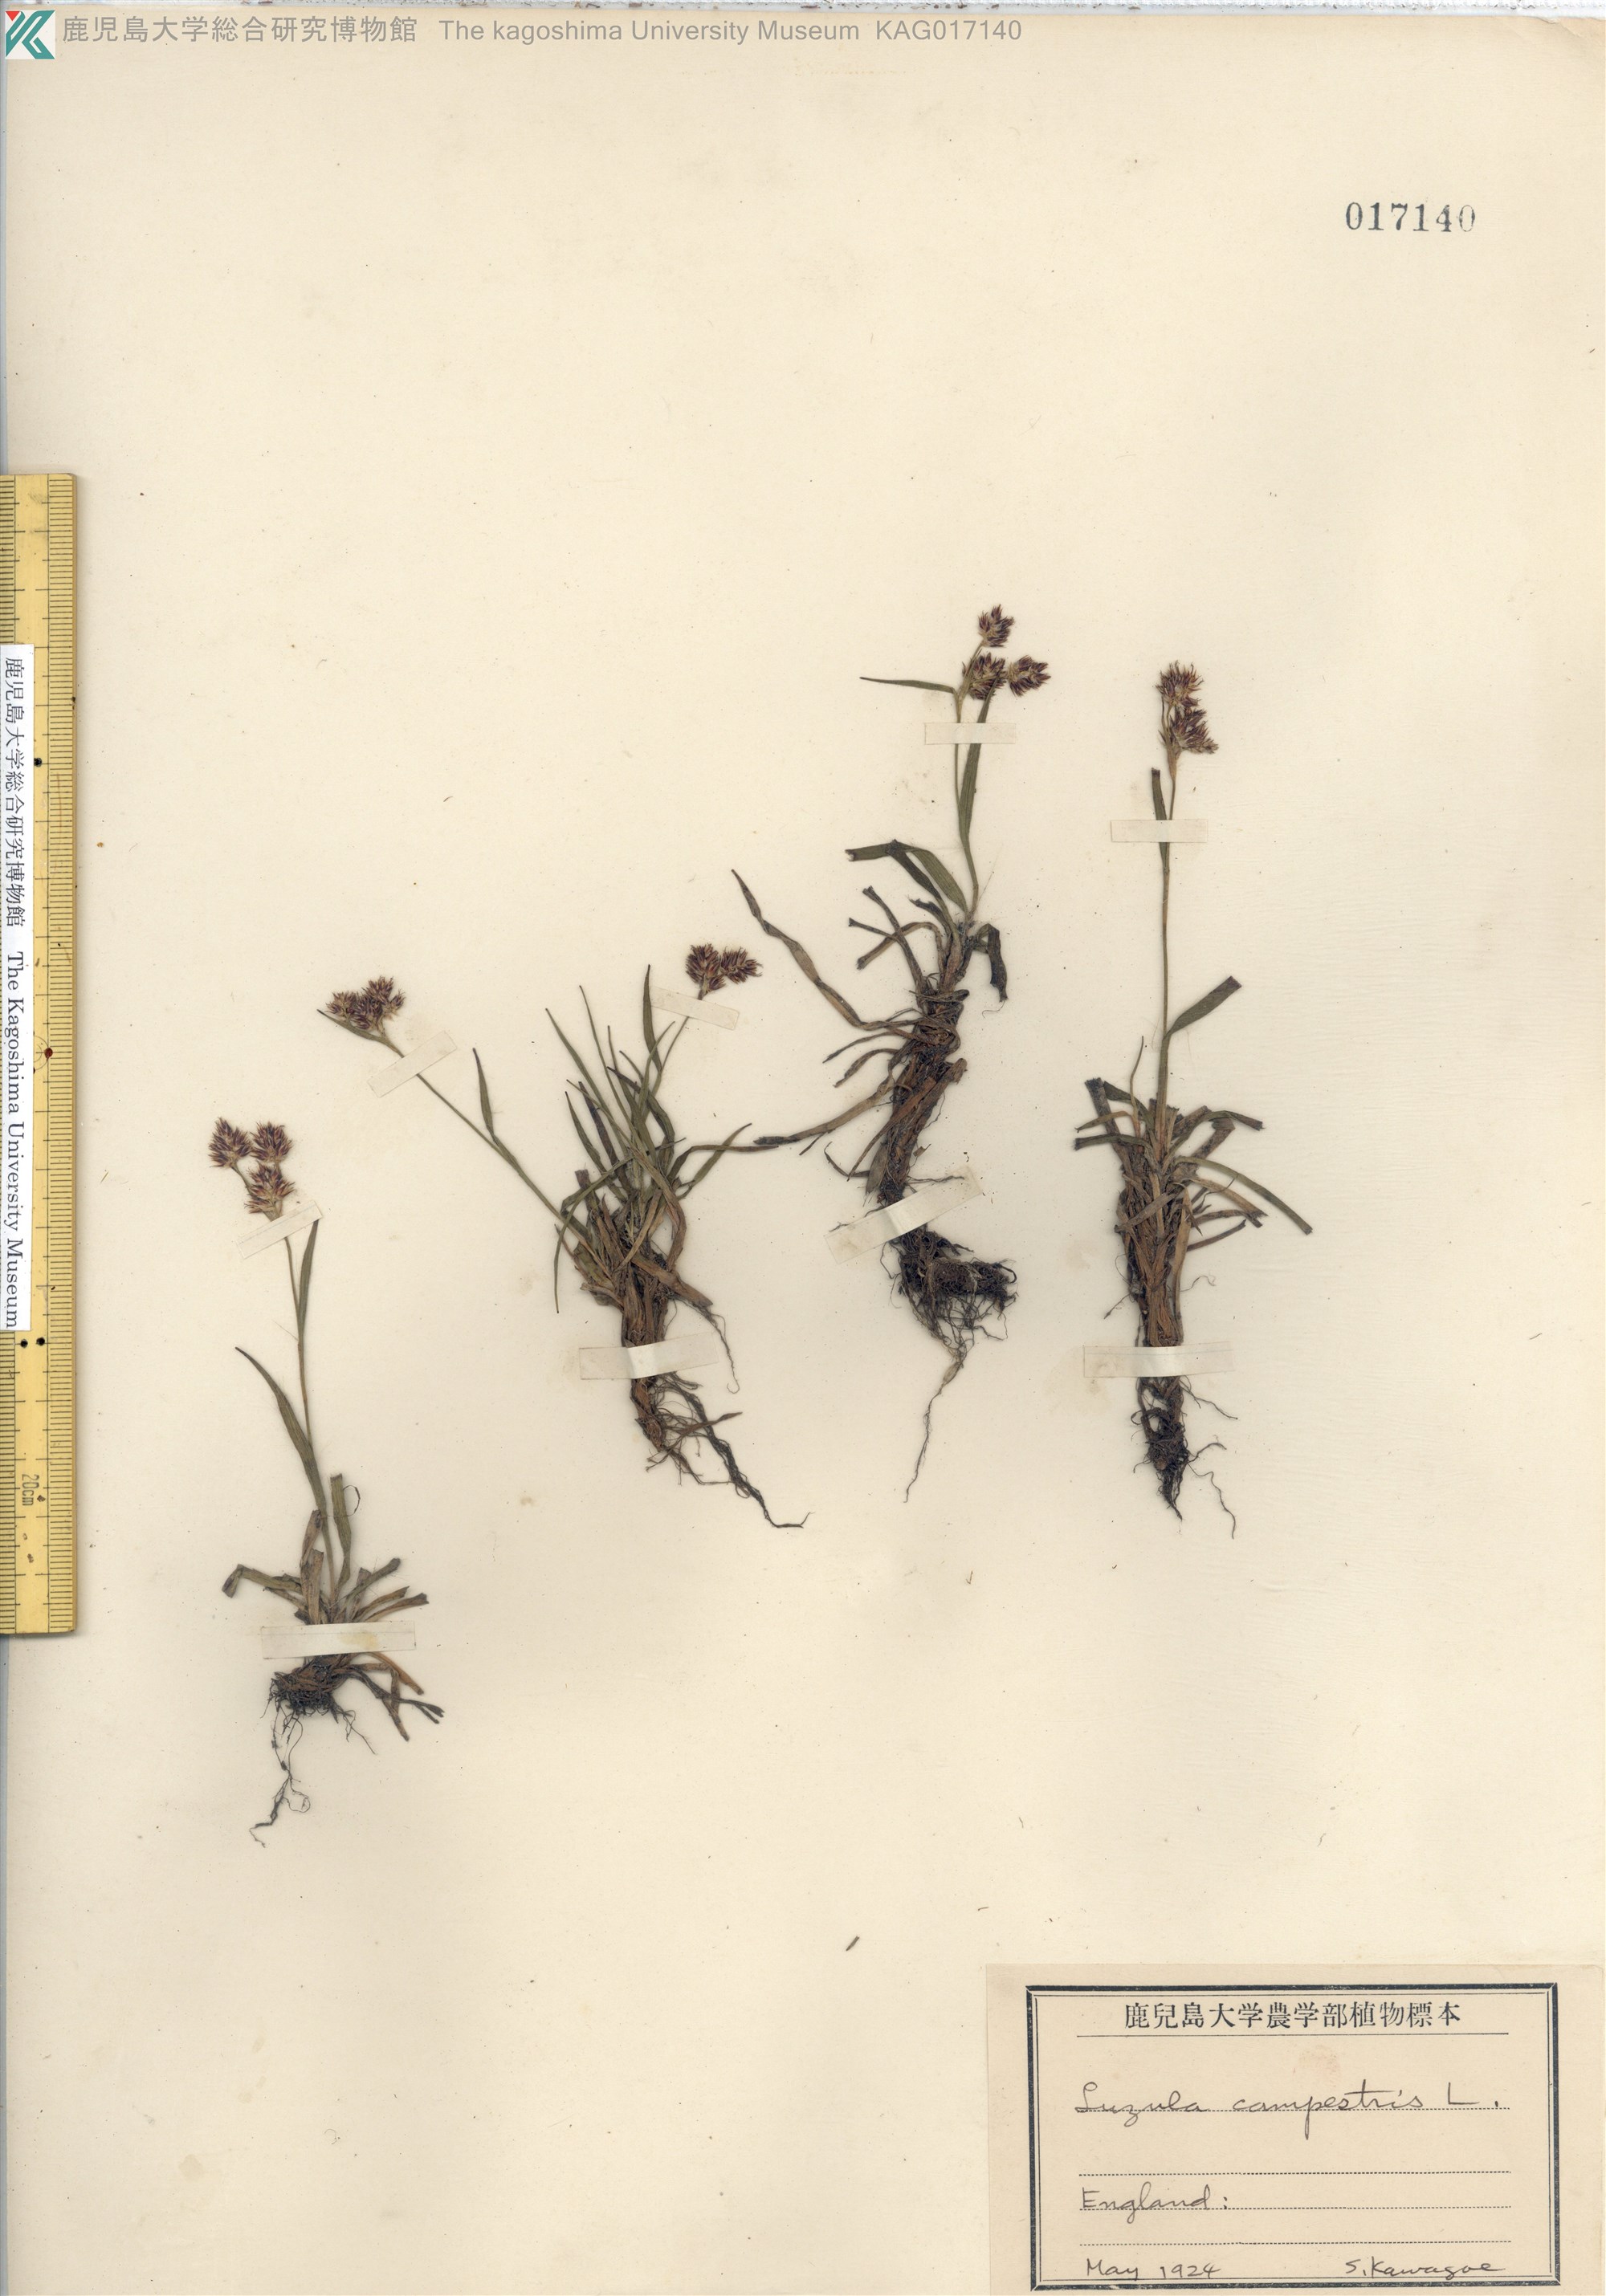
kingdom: Plantae
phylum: Tracheophyta
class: Liliopsida
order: Poales
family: Juncaceae
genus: Luzula
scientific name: Luzula campestris
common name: Field wood-rush
